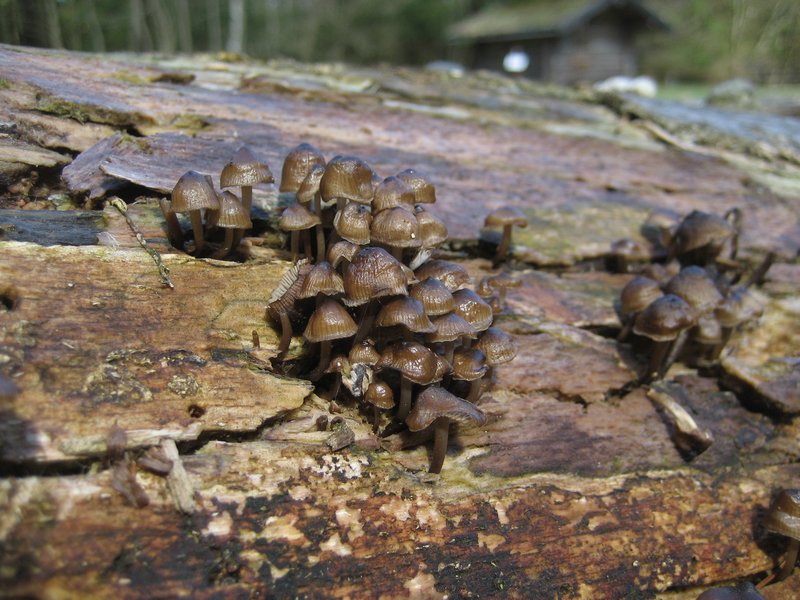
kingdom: Fungi
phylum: Basidiomycota
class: Agaricomycetes
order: Agaricales
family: Mycenaceae
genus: Mycena
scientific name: Mycena tintinnabulum
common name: vinter-huesvamp
